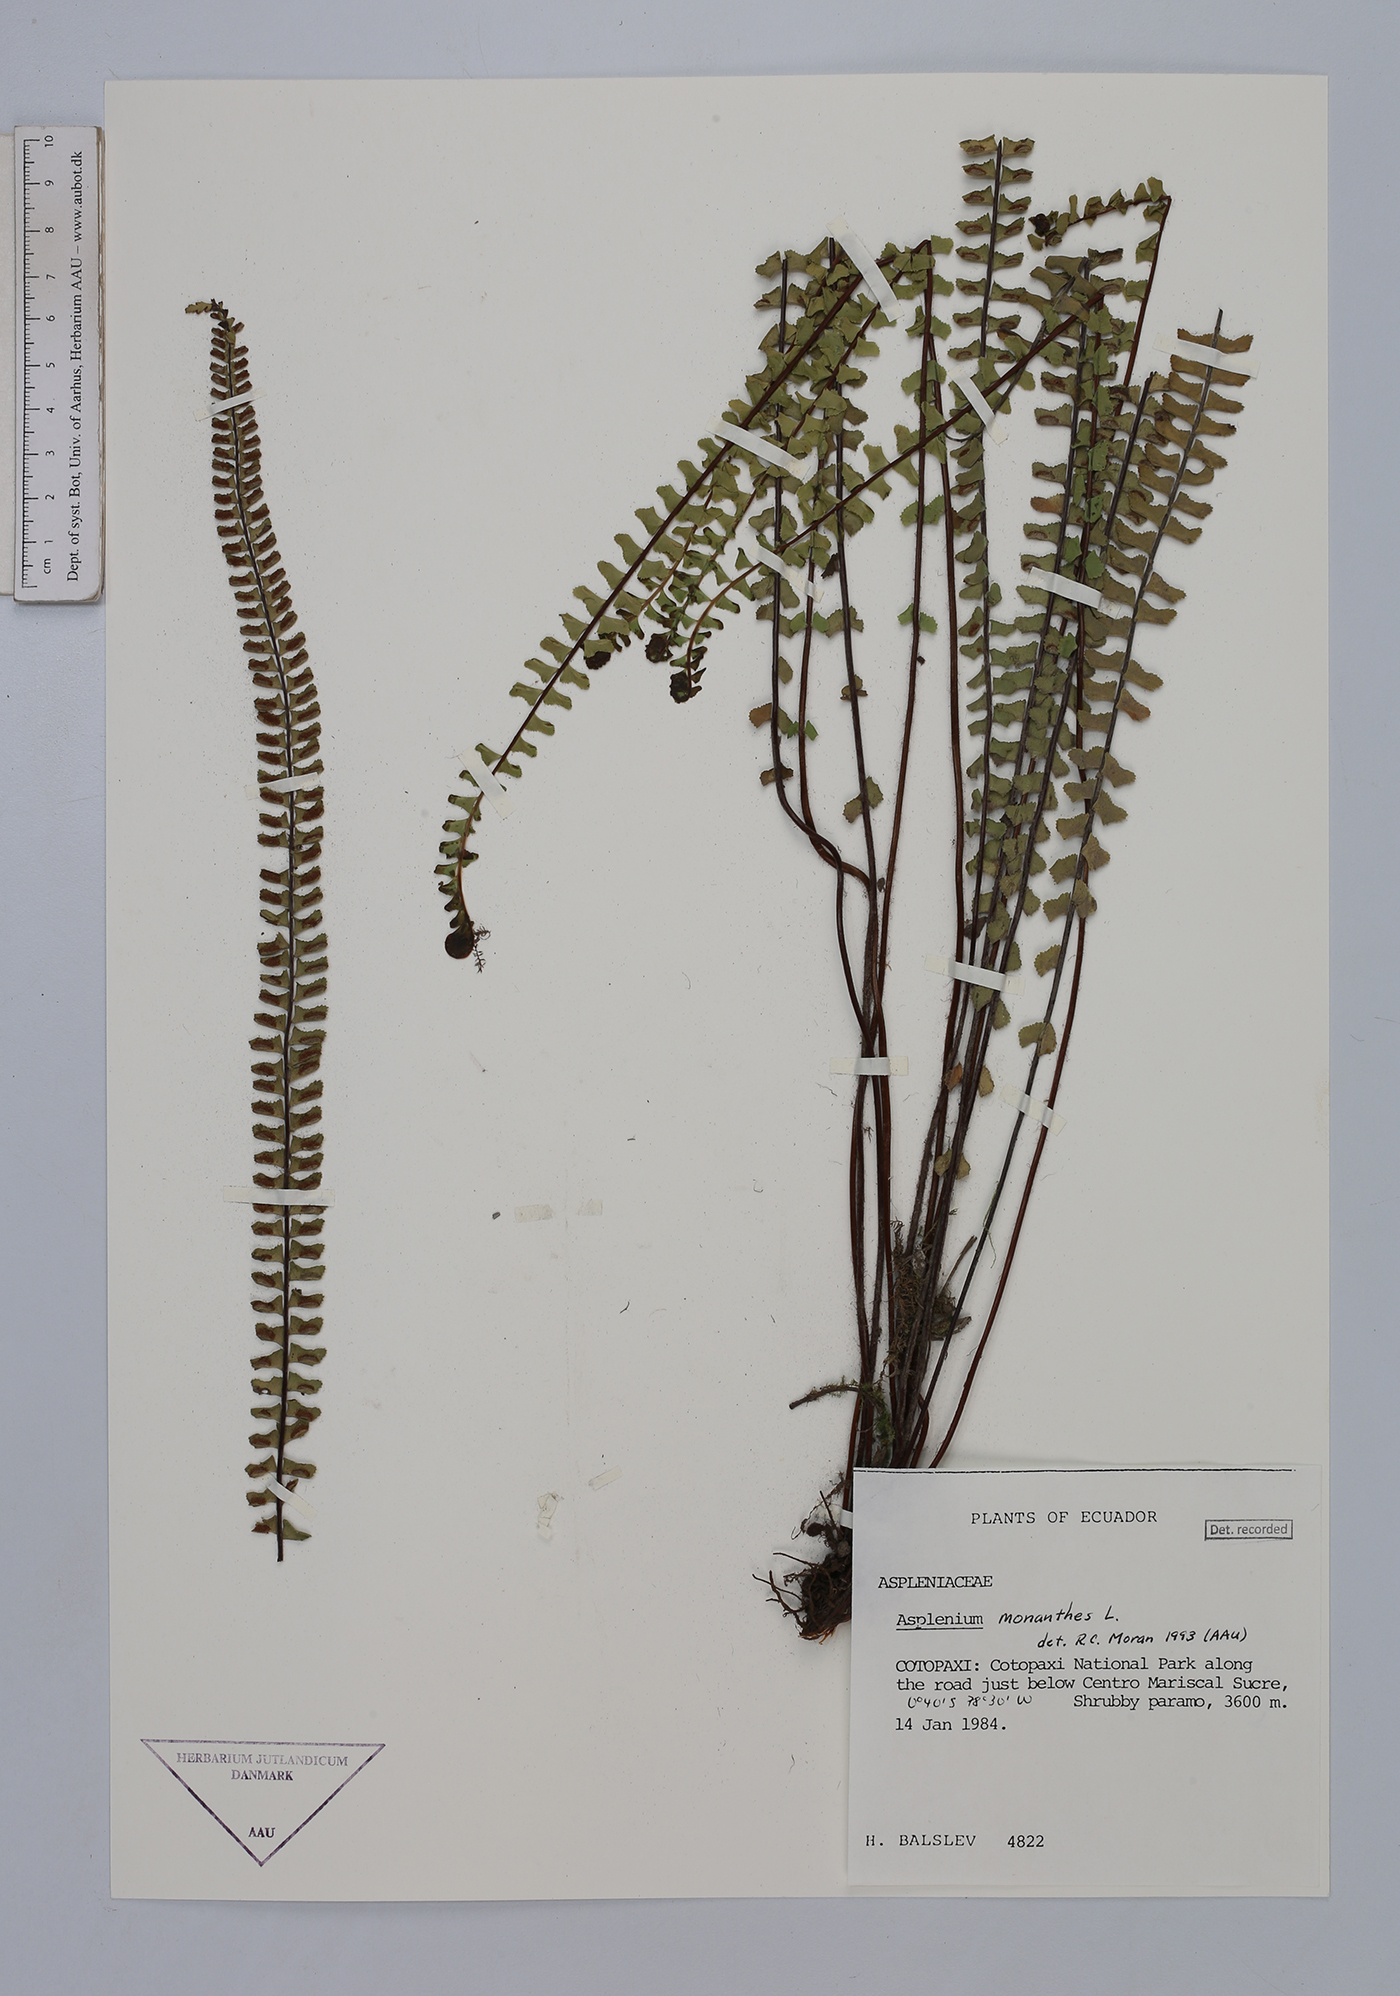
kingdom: Plantae
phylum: Tracheophyta
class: Polypodiopsida
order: Polypodiales
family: Aspleniaceae
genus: Asplenium
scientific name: Asplenium monanthes
